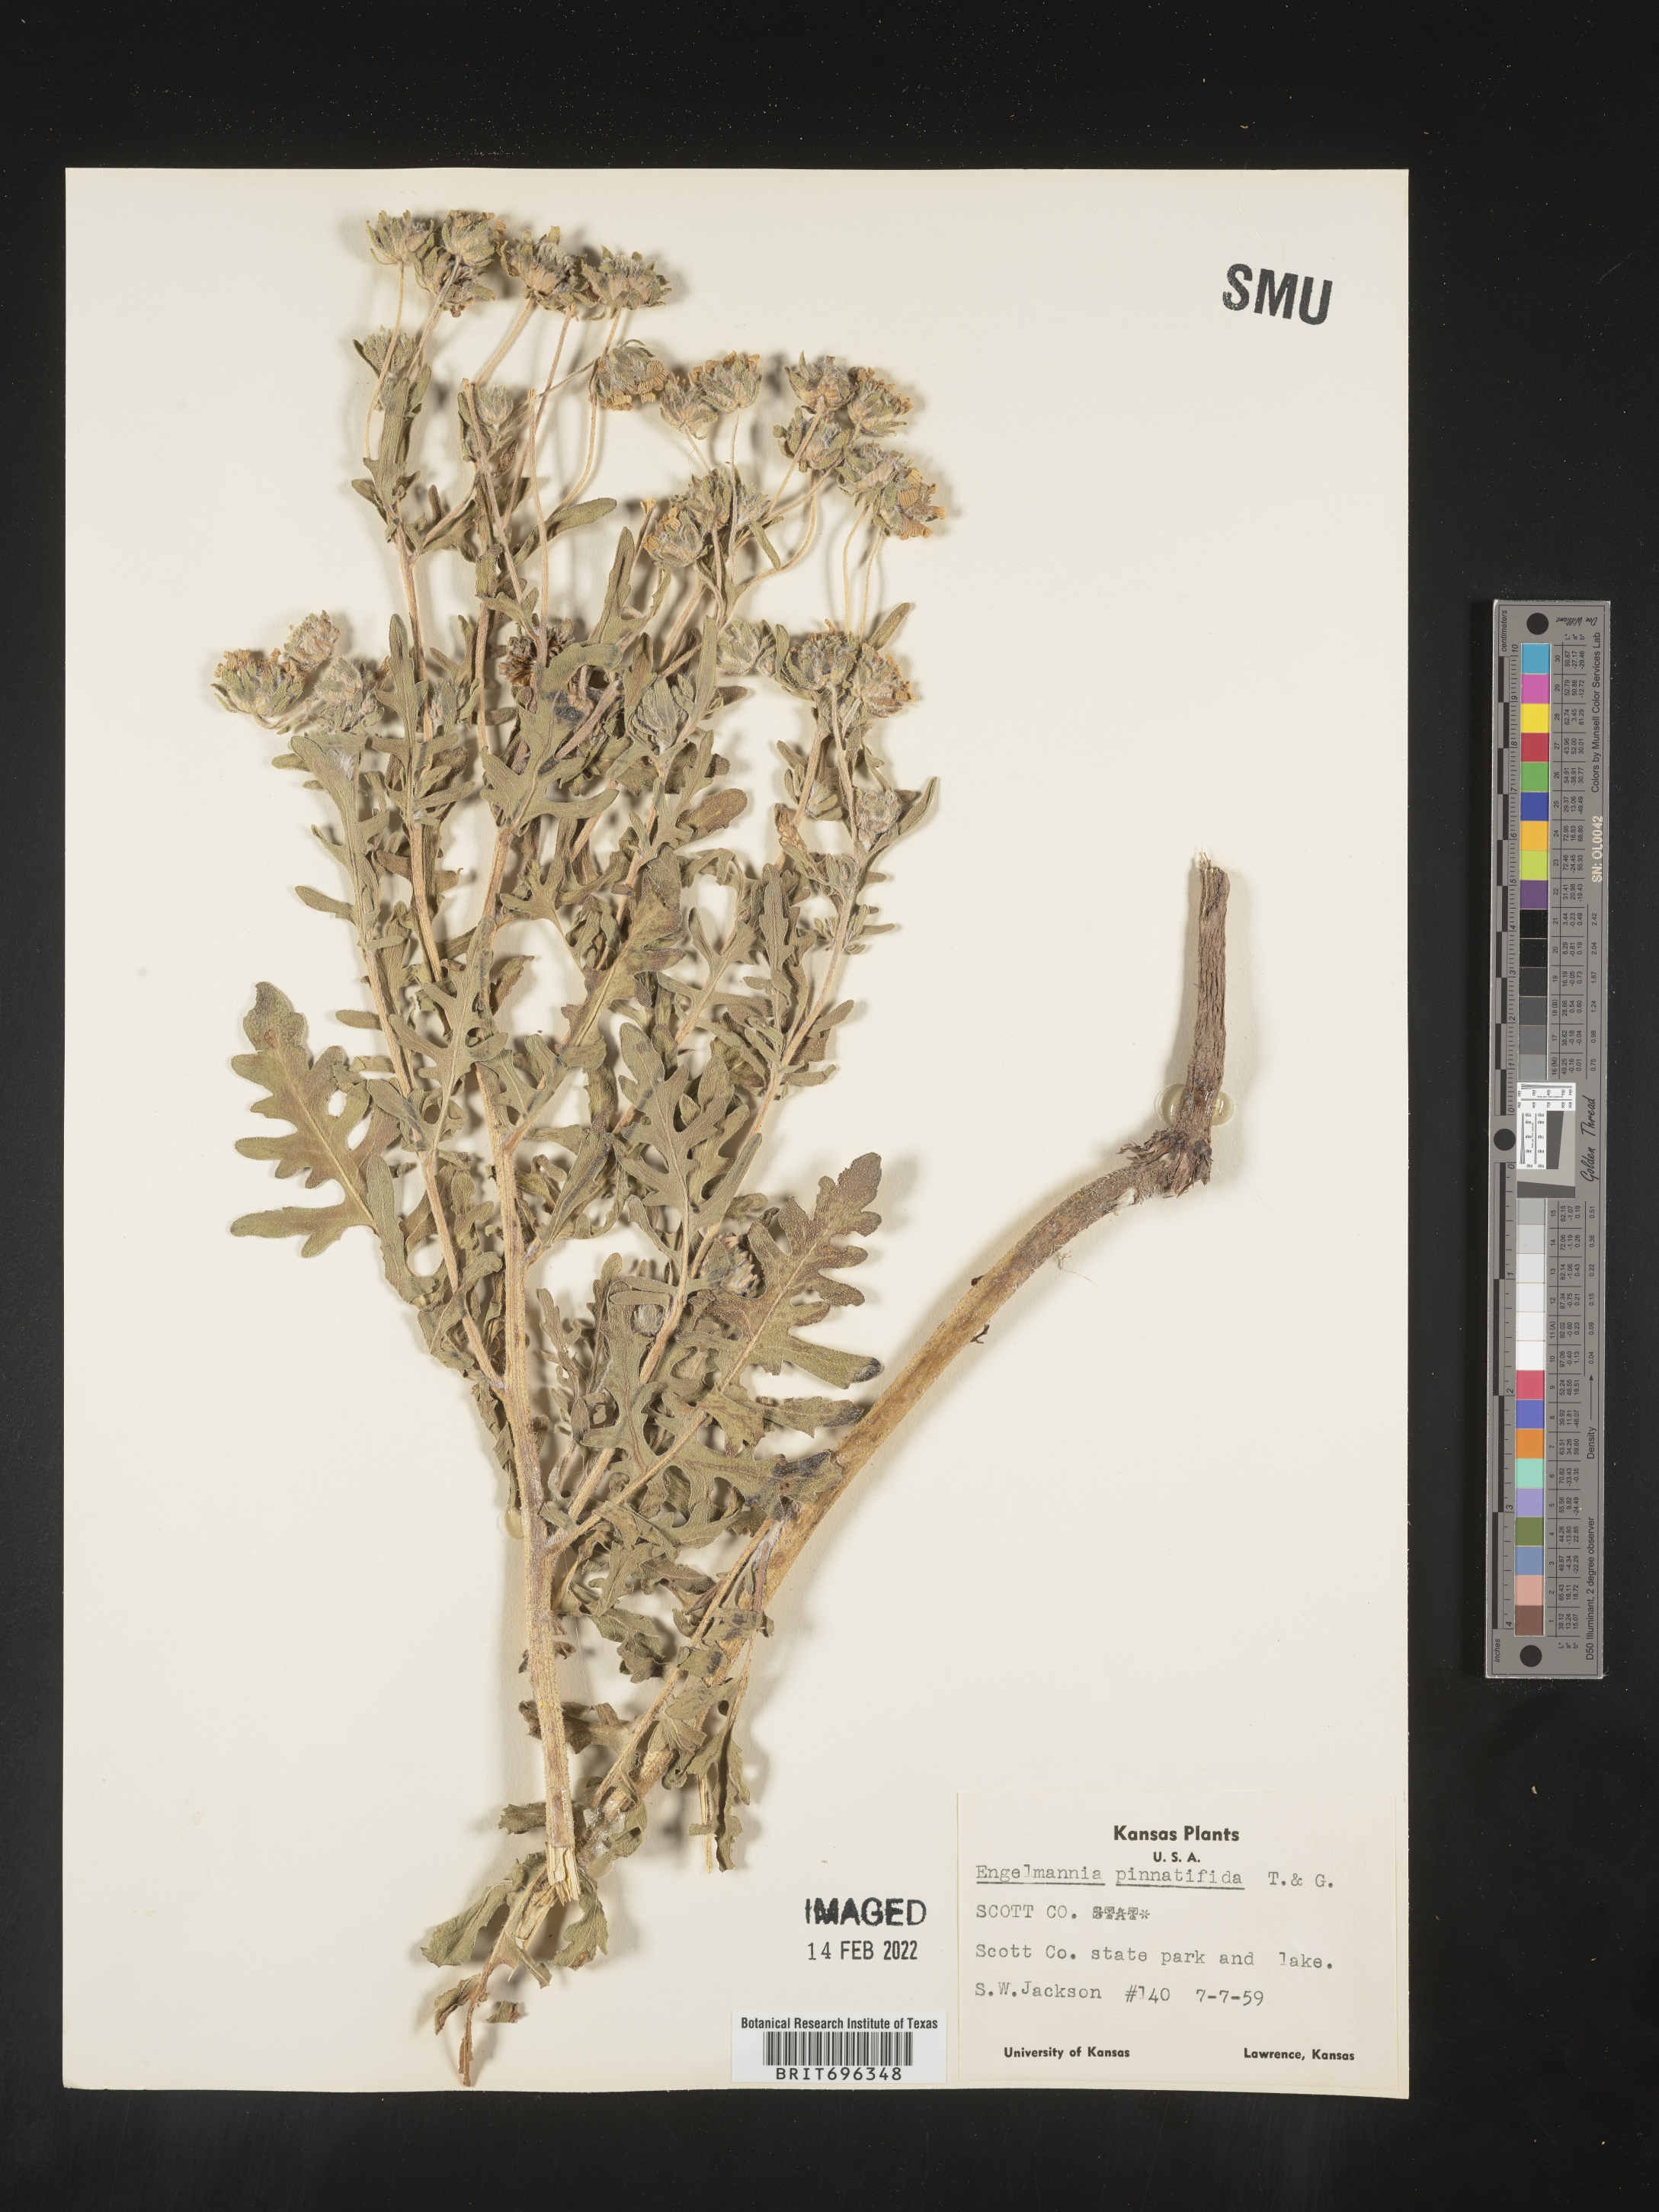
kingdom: Plantae
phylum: Tracheophyta
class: Magnoliopsida
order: Asterales
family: Asteraceae
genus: Engelmannia
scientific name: Engelmannia peristenia
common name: Engelmann's daisy
